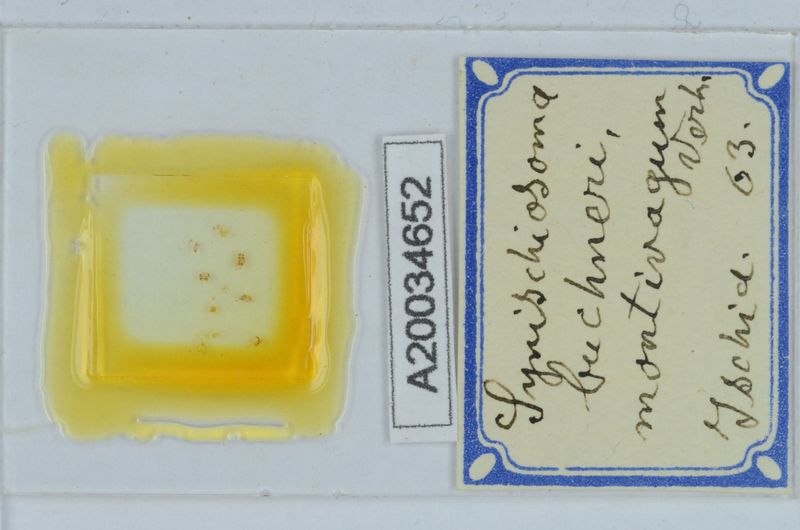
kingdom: Animalia
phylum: Arthropoda
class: Diplopoda
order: Chordeumatida
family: Craspedosomatidae
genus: Synischiosoma
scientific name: Synischiosoma buchneri
